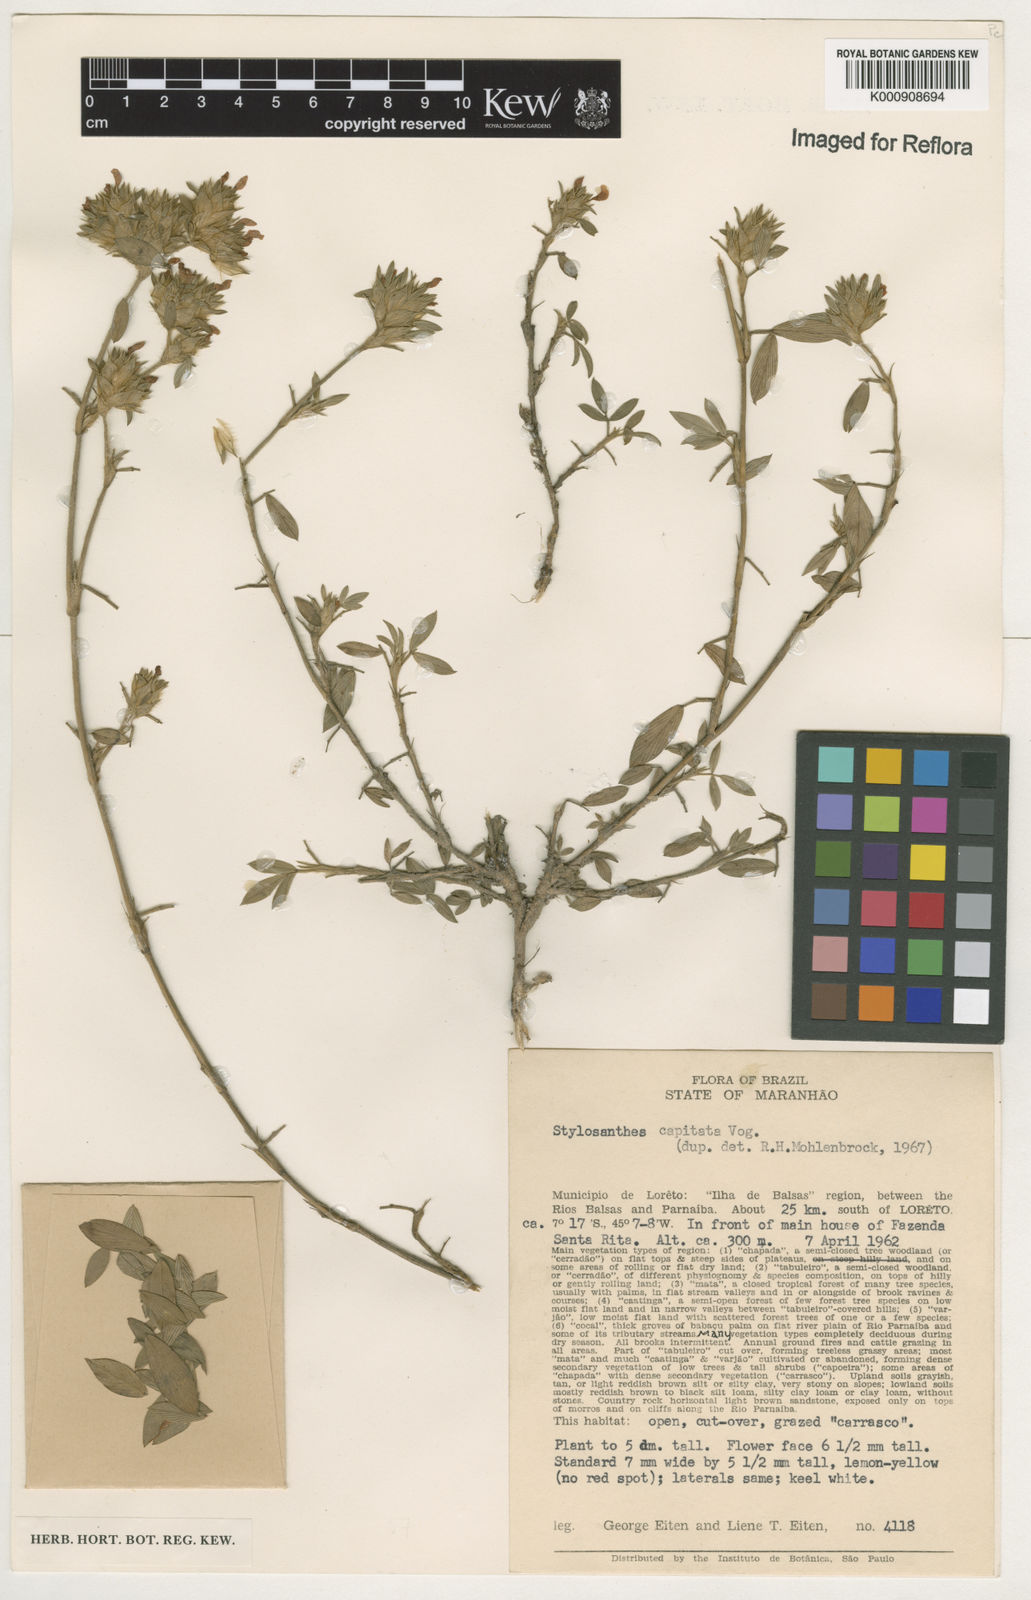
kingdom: Plantae
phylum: Tracheophyta
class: Magnoliopsida
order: Fabales
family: Fabaceae
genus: Stylosanthes
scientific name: Stylosanthes capitata
